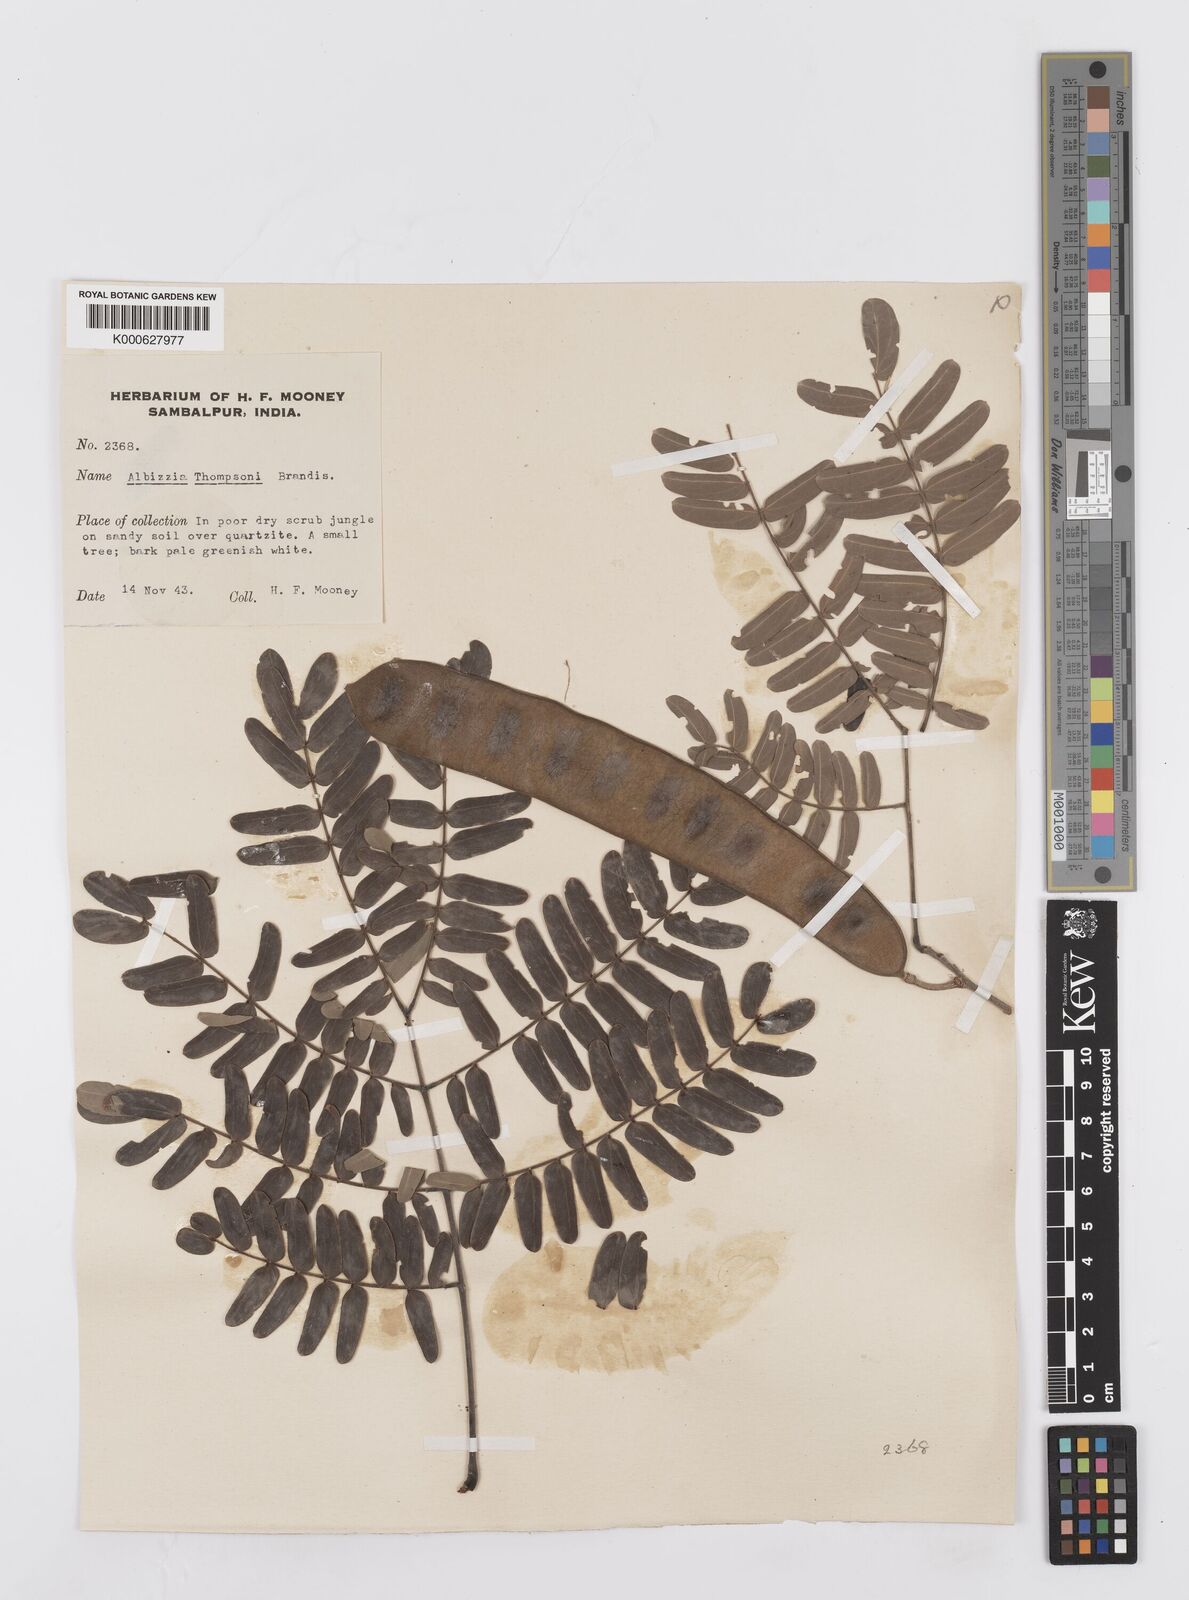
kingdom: Plantae
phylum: Tracheophyta
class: Magnoliopsida
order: Fabales
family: Fabaceae
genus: Albizia
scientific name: Albizia thompsonii
